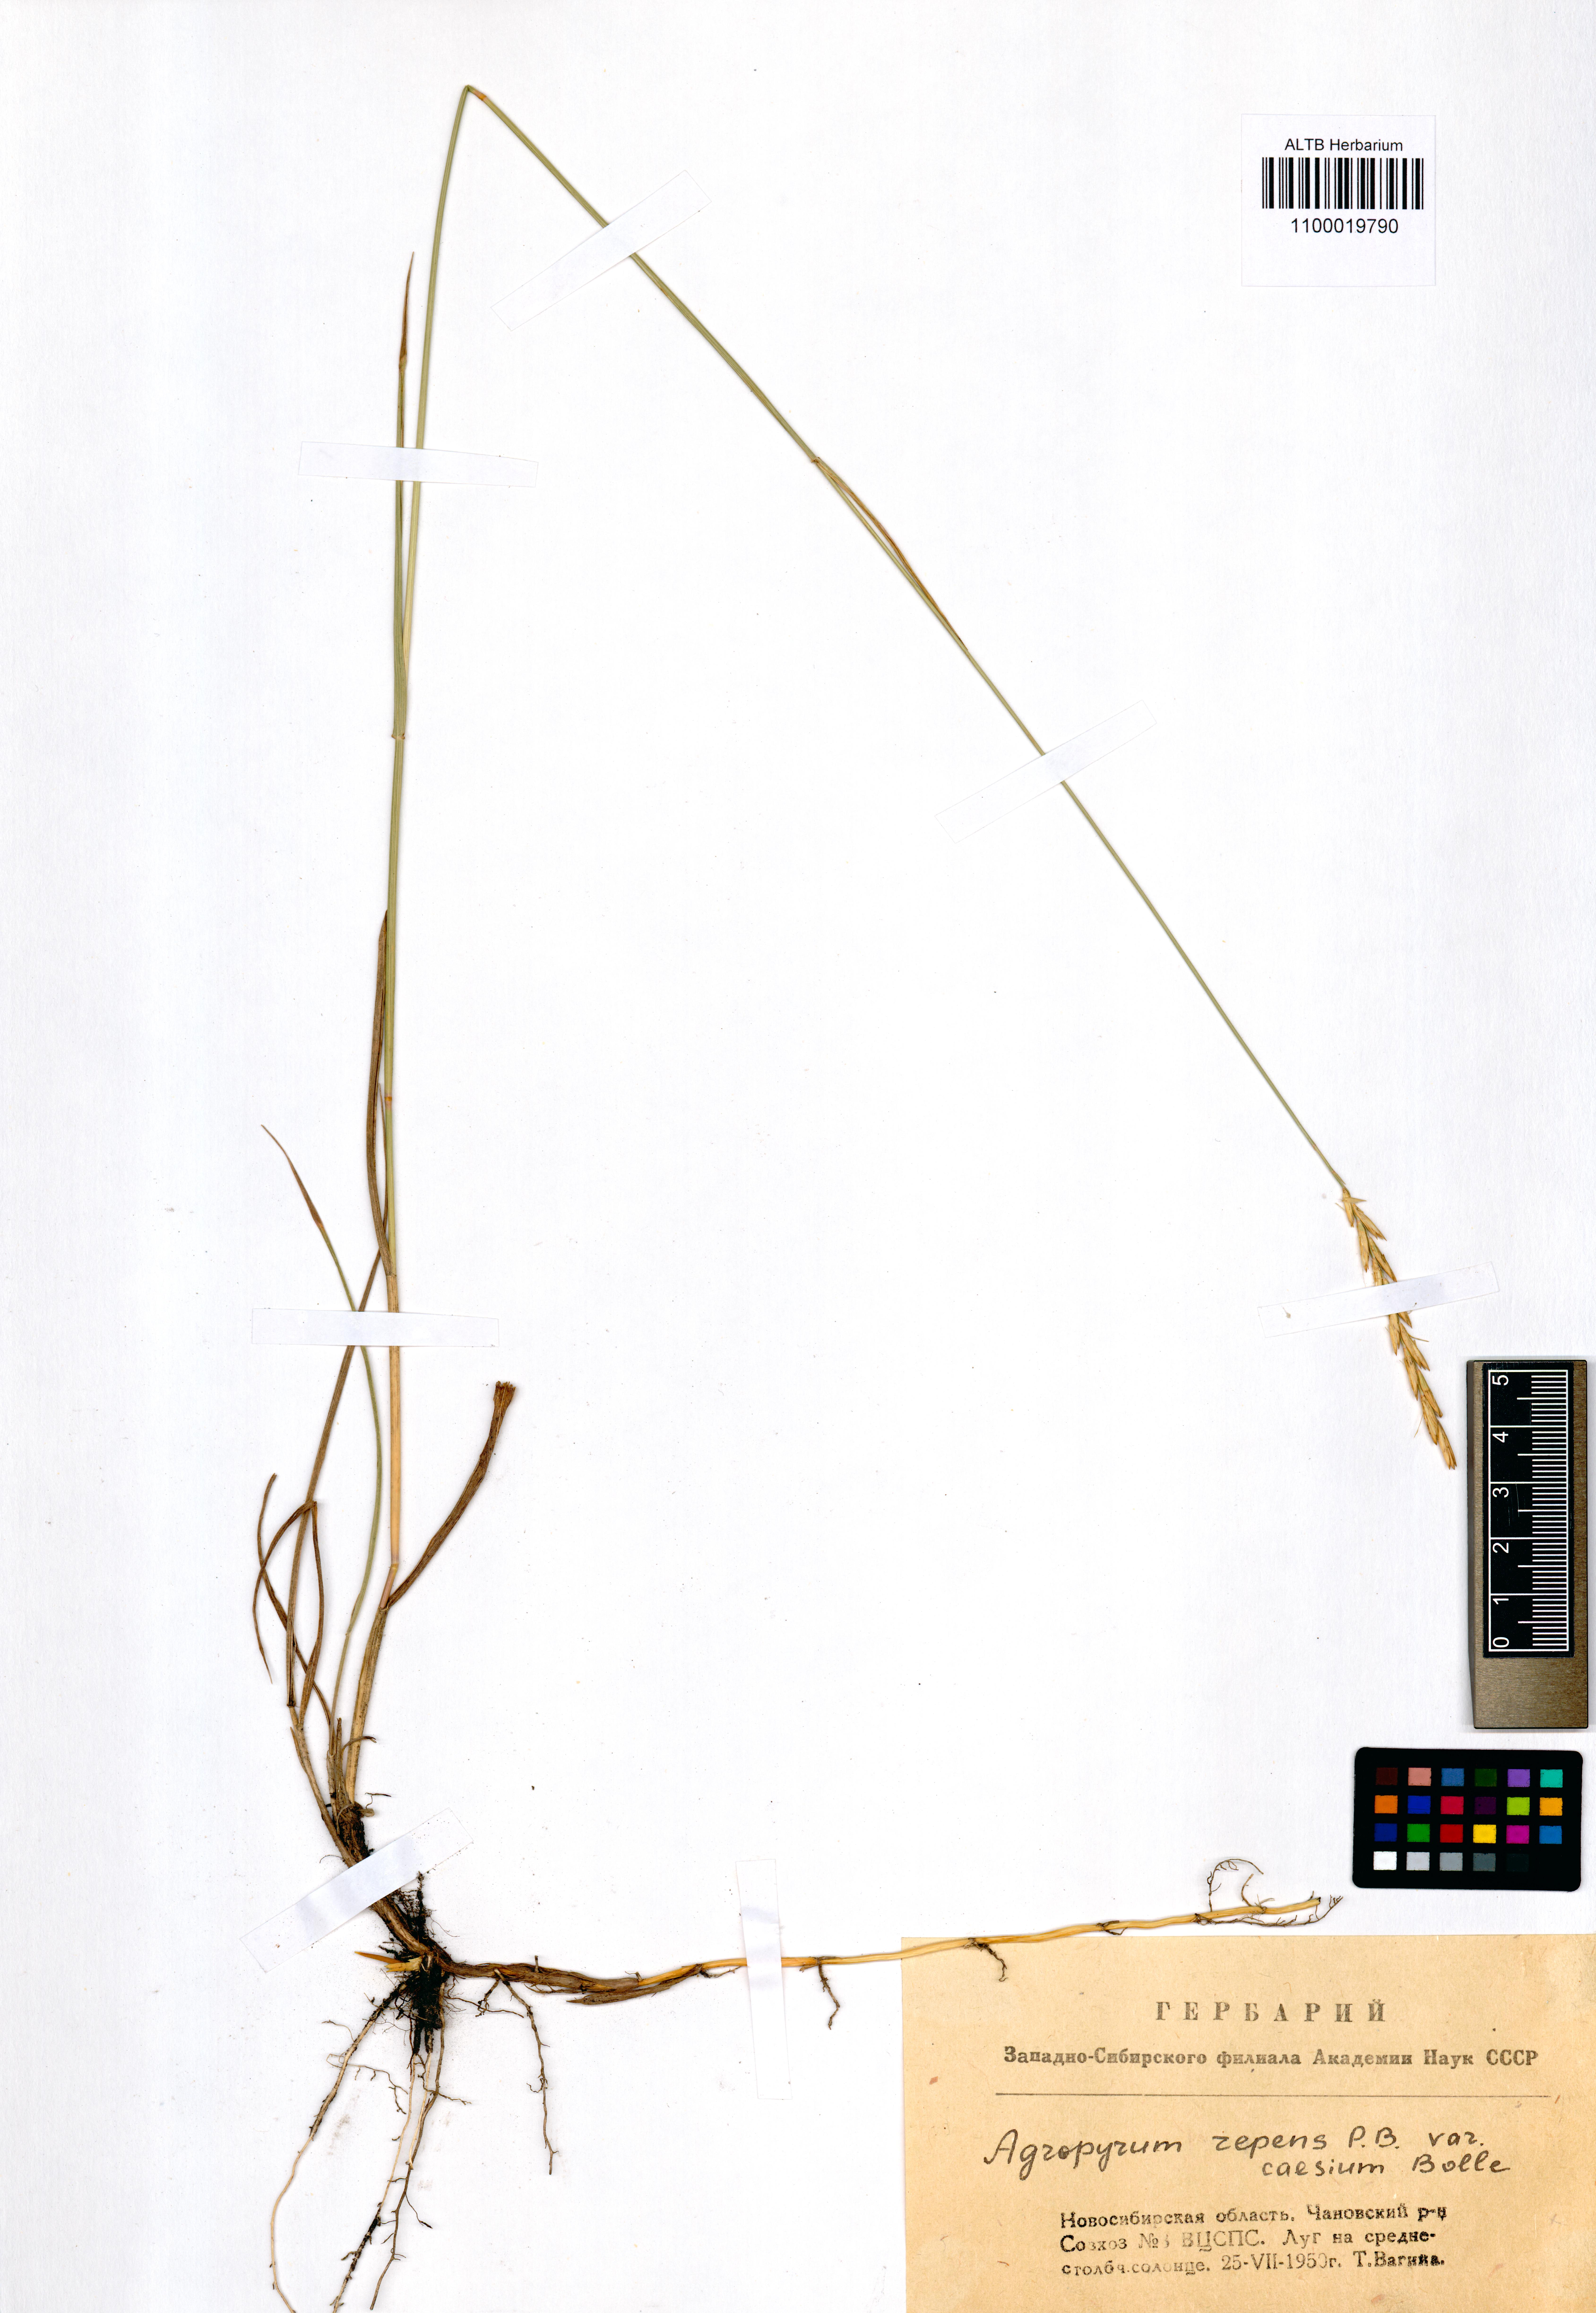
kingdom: Plantae
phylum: Tracheophyta
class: Liliopsida
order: Poales
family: Poaceae
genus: Elymus
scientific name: Elymus repens
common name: Quackgrass
